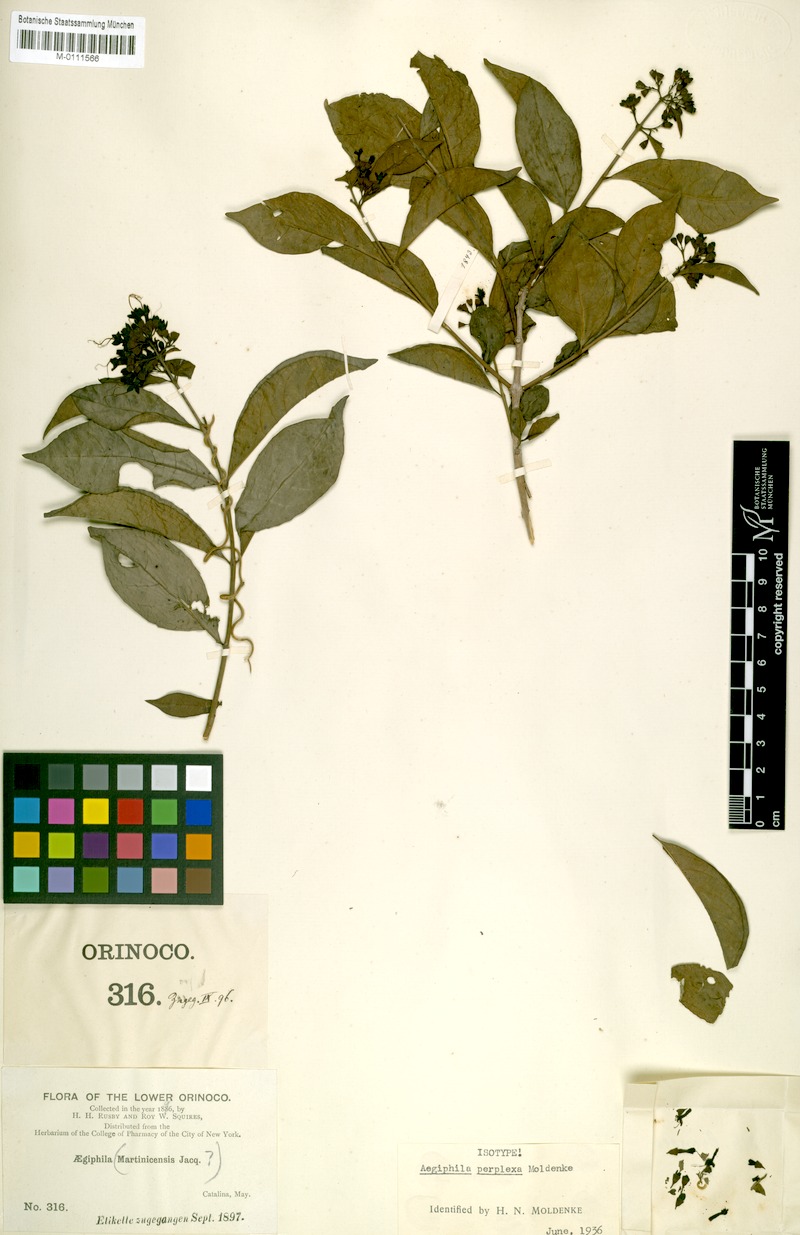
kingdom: Plantae
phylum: Tracheophyta
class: Magnoliopsida
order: Lamiales
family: Lamiaceae
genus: Aegiphila
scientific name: Aegiphila perplexa
